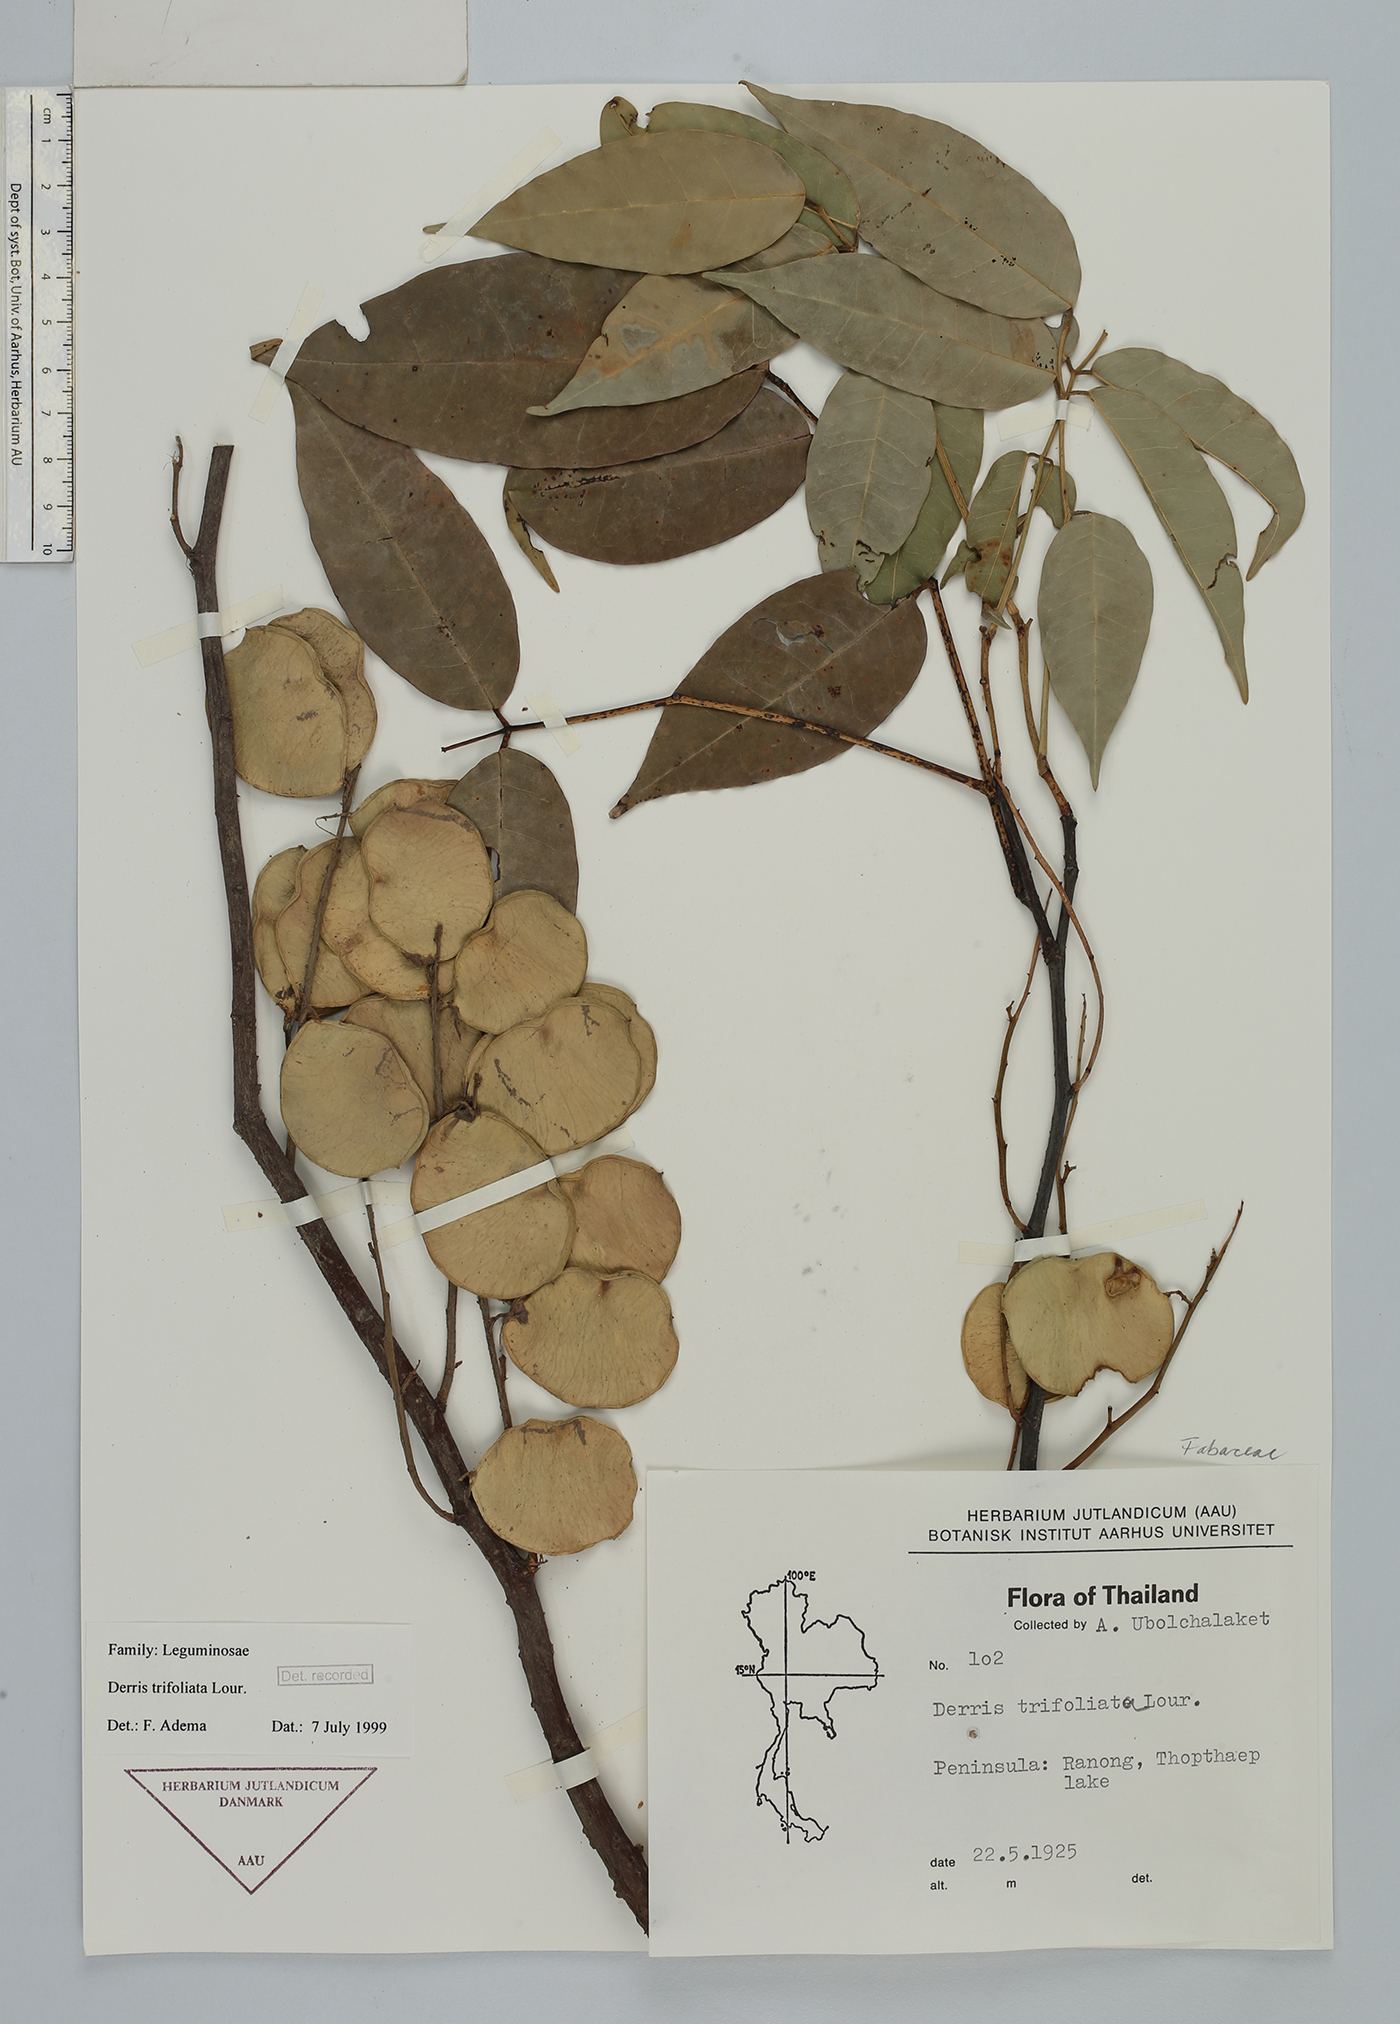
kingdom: Plantae
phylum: Tracheophyta
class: Magnoliopsida
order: Fabales
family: Fabaceae
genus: Derris
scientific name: Derris trifoliata
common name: Three-leaf derris
